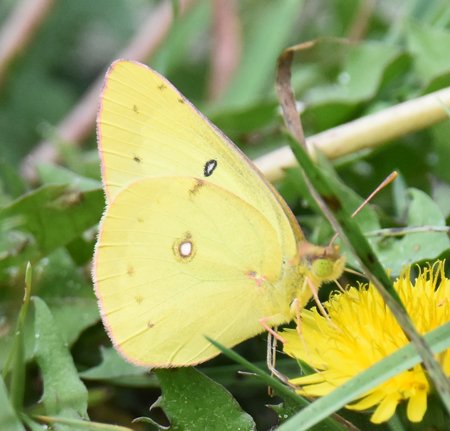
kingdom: Animalia
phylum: Arthropoda
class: Insecta
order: Lepidoptera
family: Pieridae
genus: Colias
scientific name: Colias philodice
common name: Clouded Sulphur
